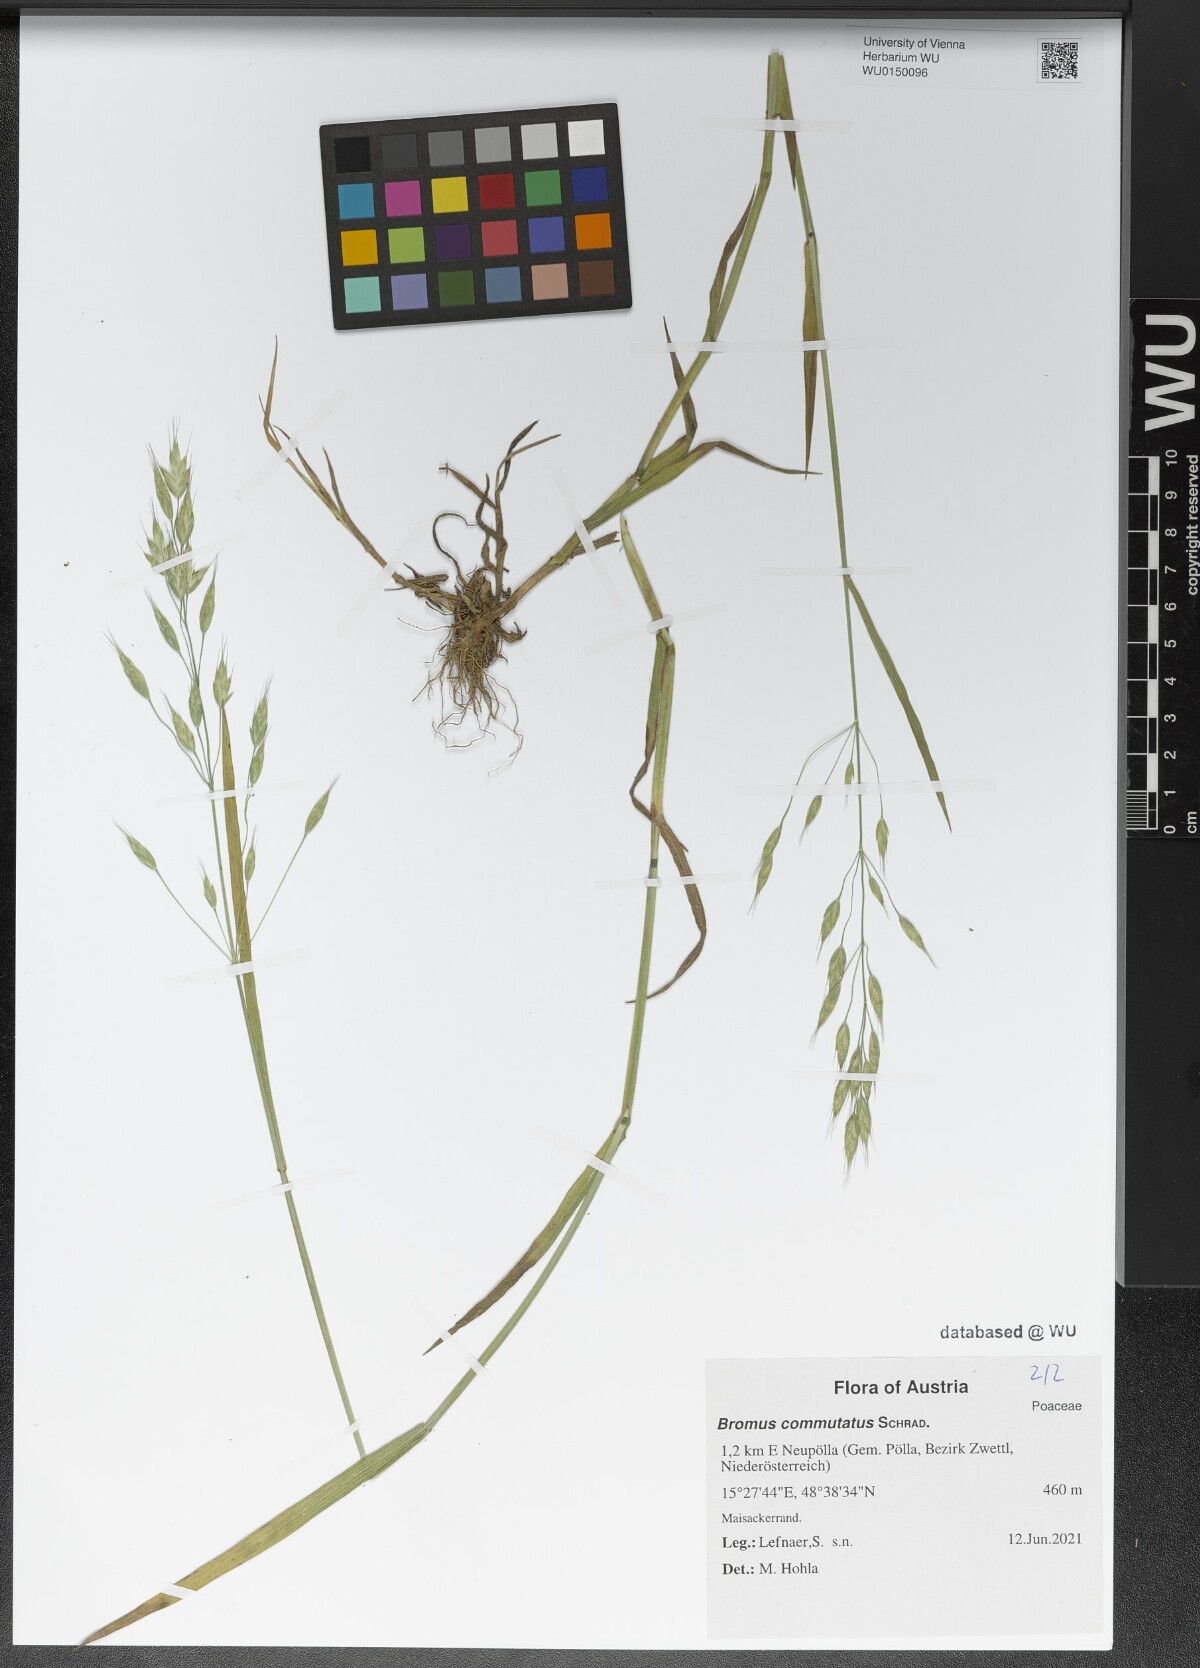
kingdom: Plantae
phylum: Tracheophyta
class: Liliopsida
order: Poales
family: Poaceae
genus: Bromus
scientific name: Bromus commutatus
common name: Meadow brome
